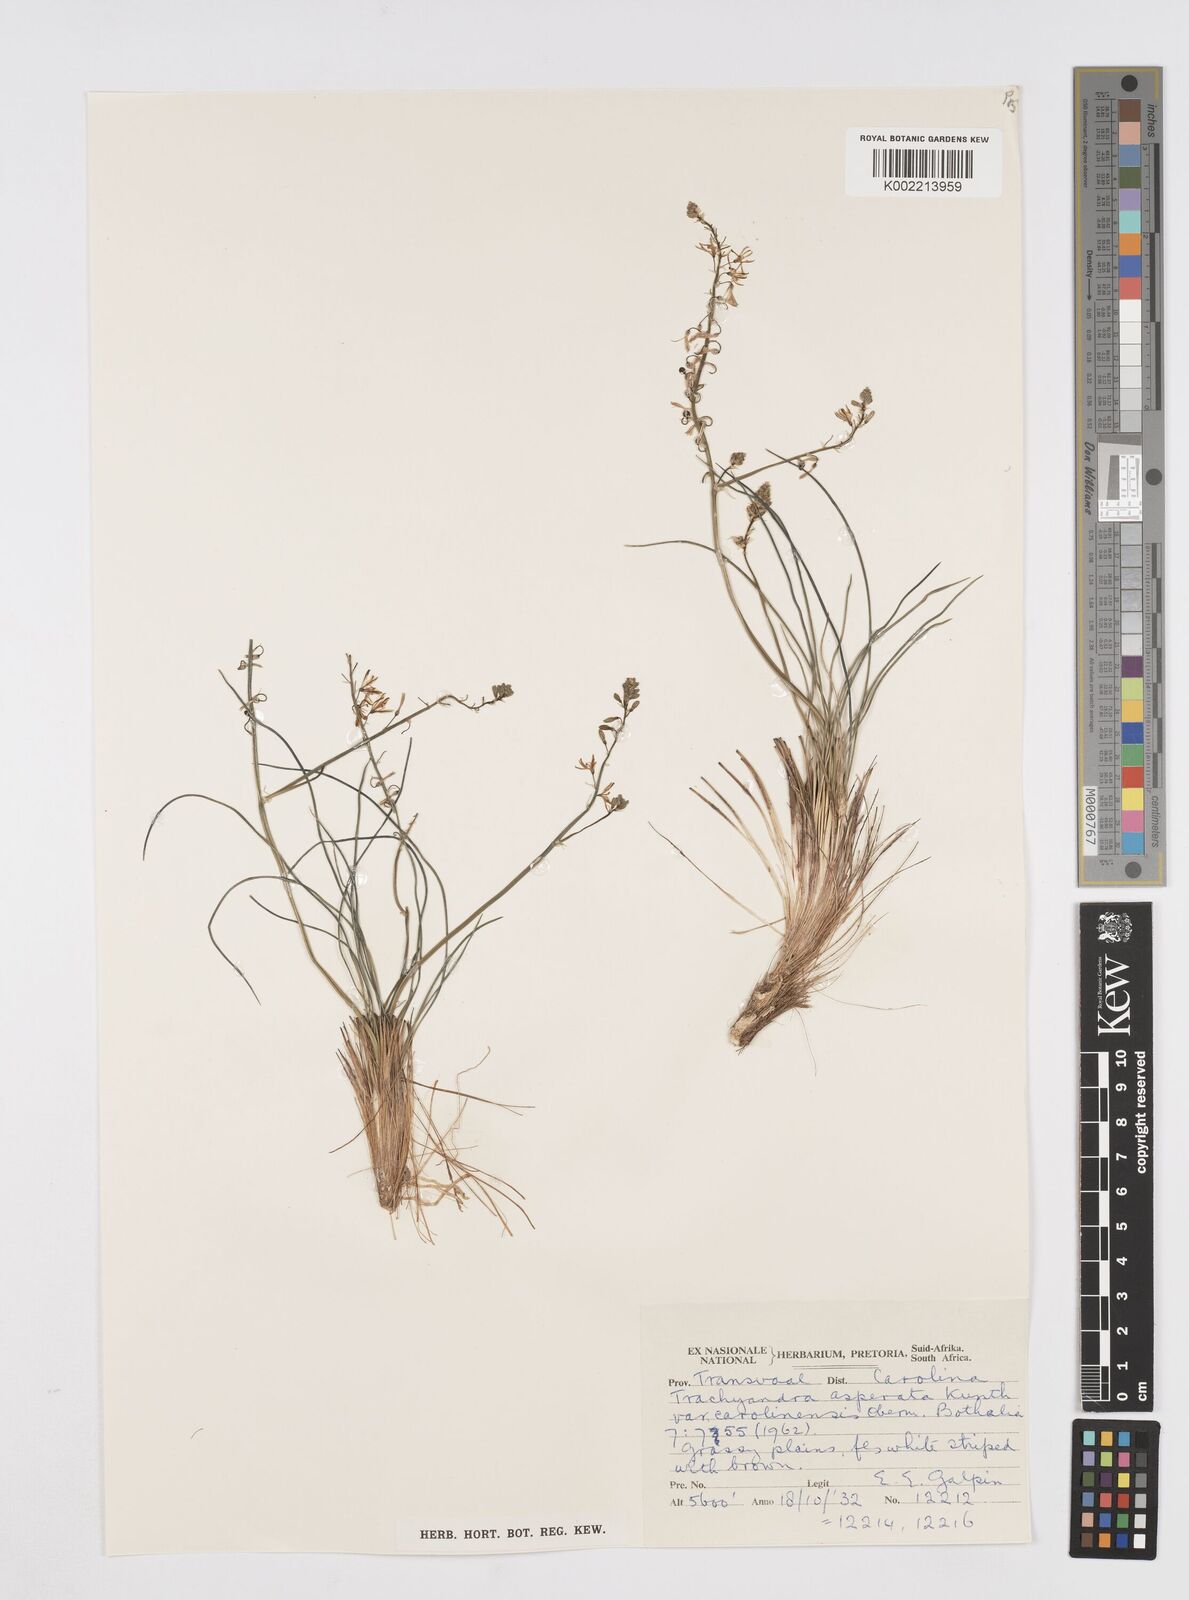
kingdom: Plantae
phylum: Tracheophyta
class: Liliopsida
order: Asparagales
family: Asphodelaceae
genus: Trachyandra
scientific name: Trachyandra asperata
